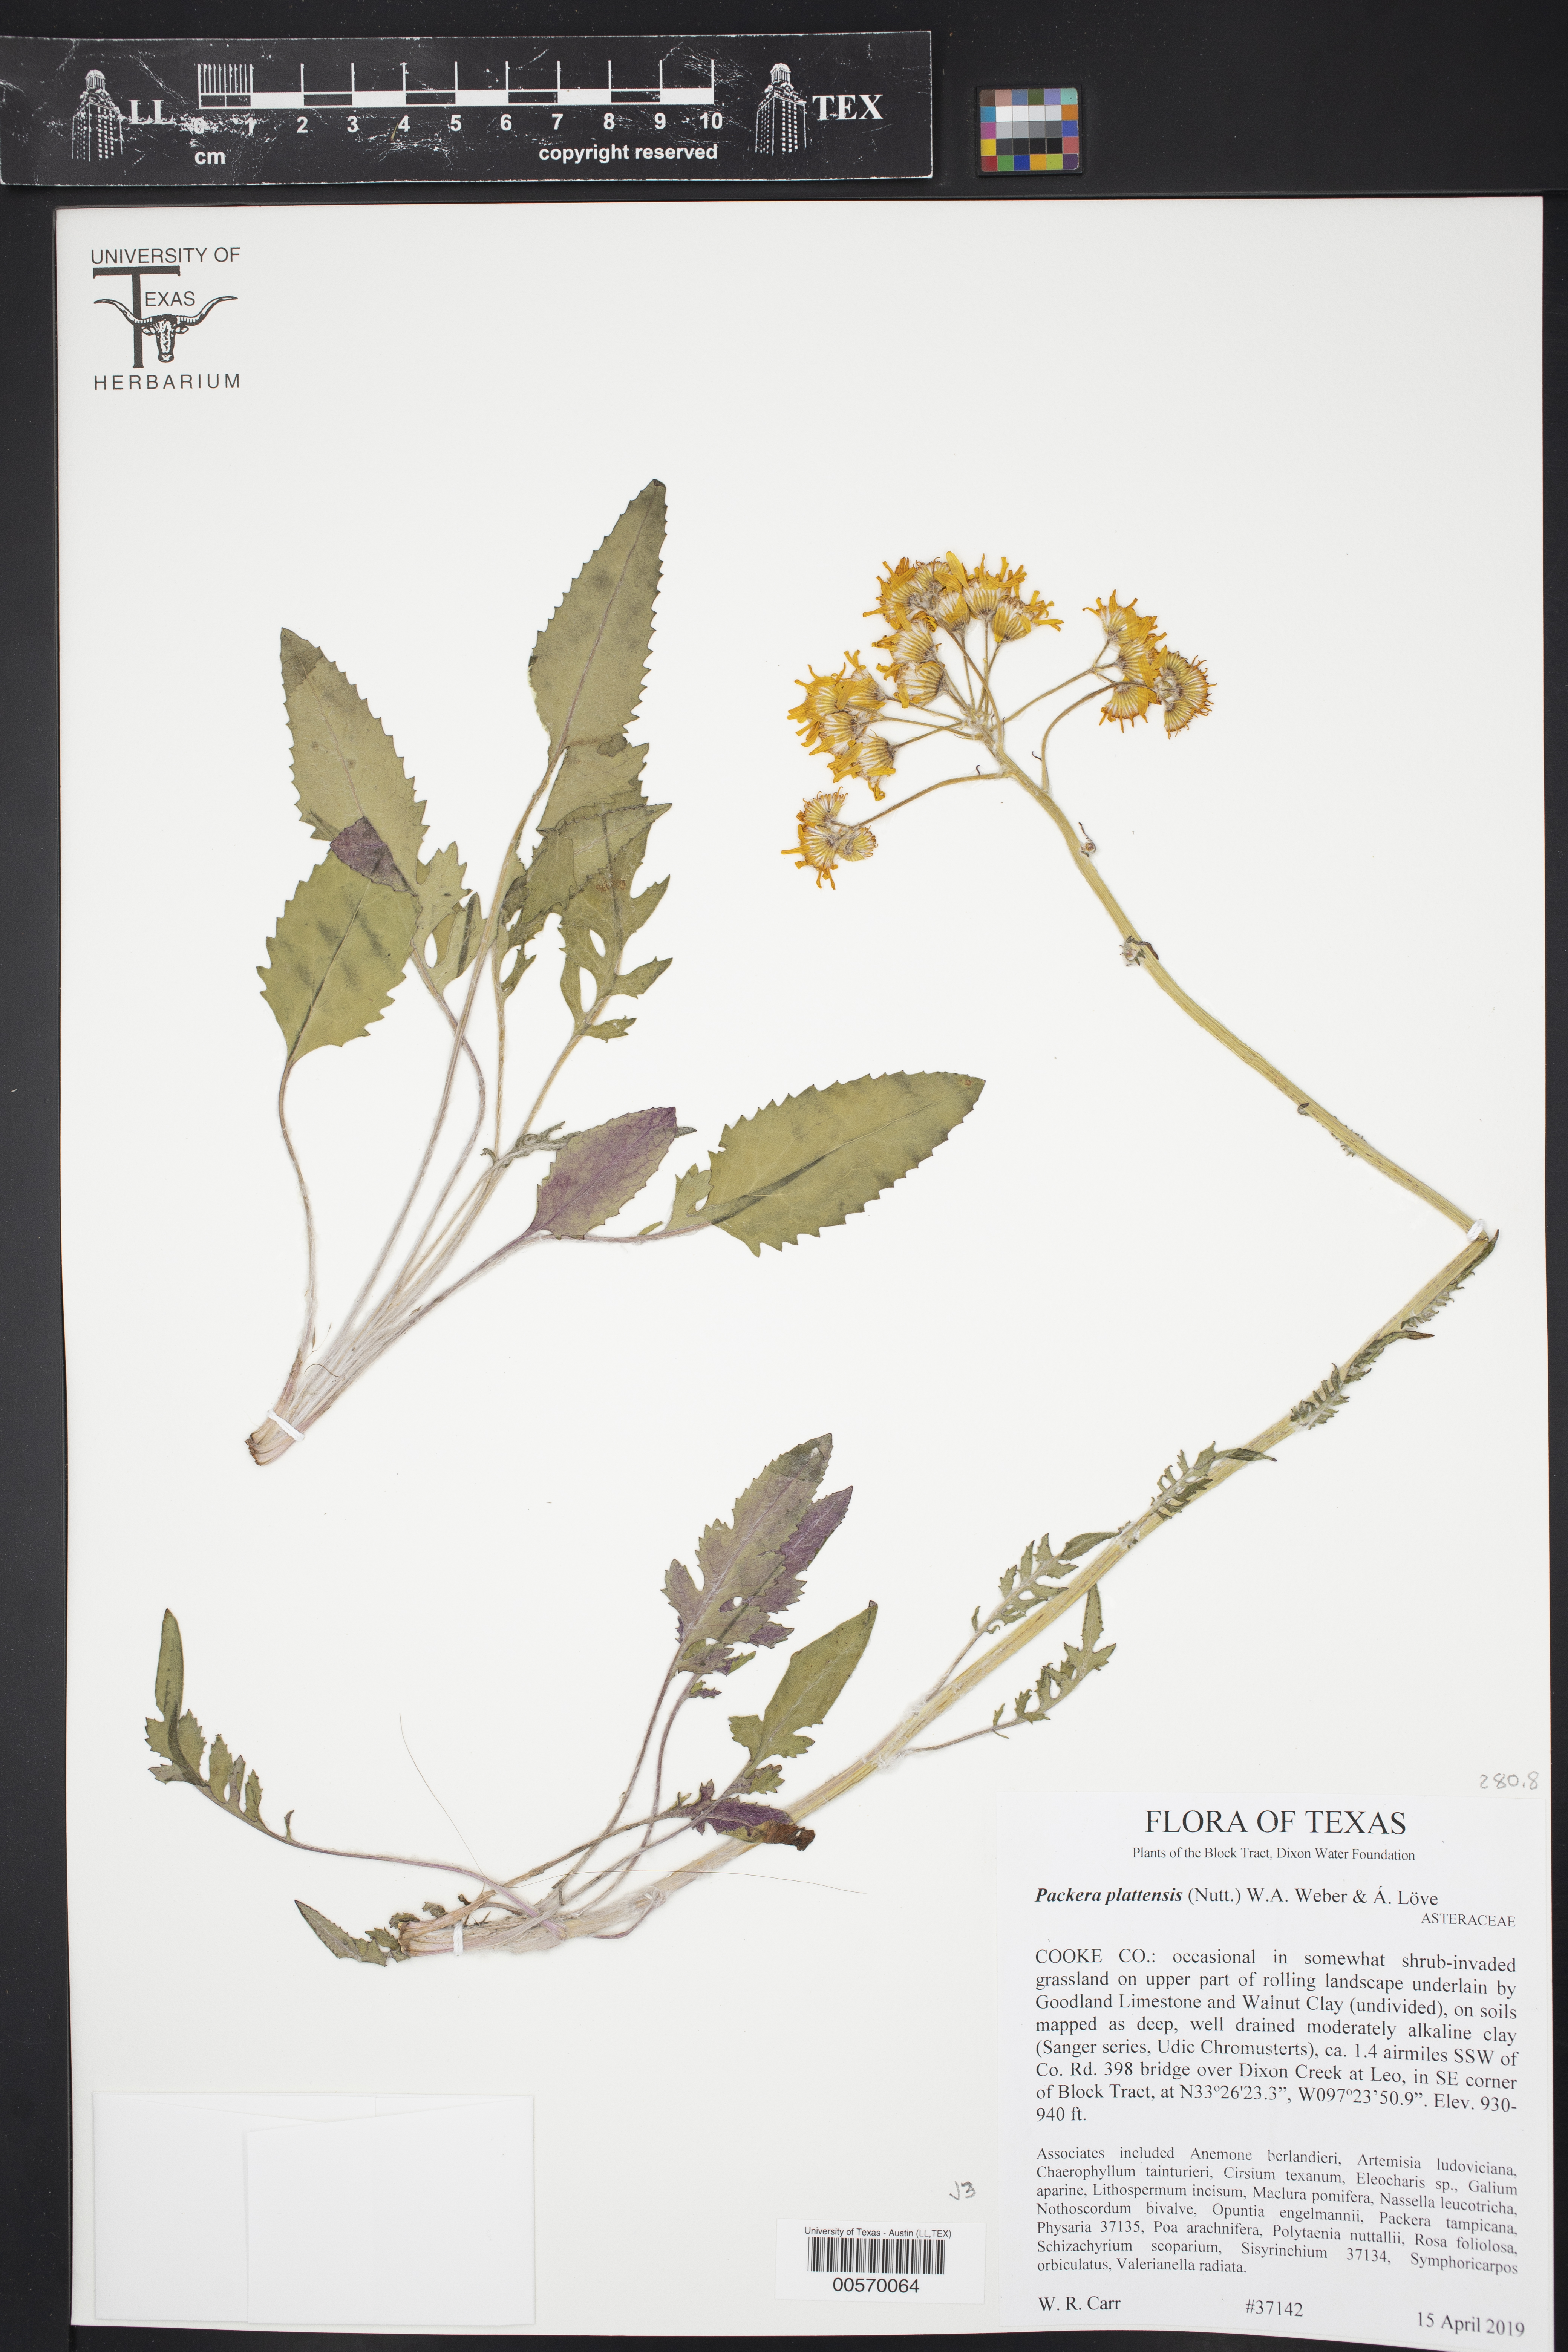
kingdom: Plantae
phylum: Tracheophyta
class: Magnoliopsida
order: Asterales
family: Asteraceae
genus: Packera
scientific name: Packera plattensis
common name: Prairie groundsel
